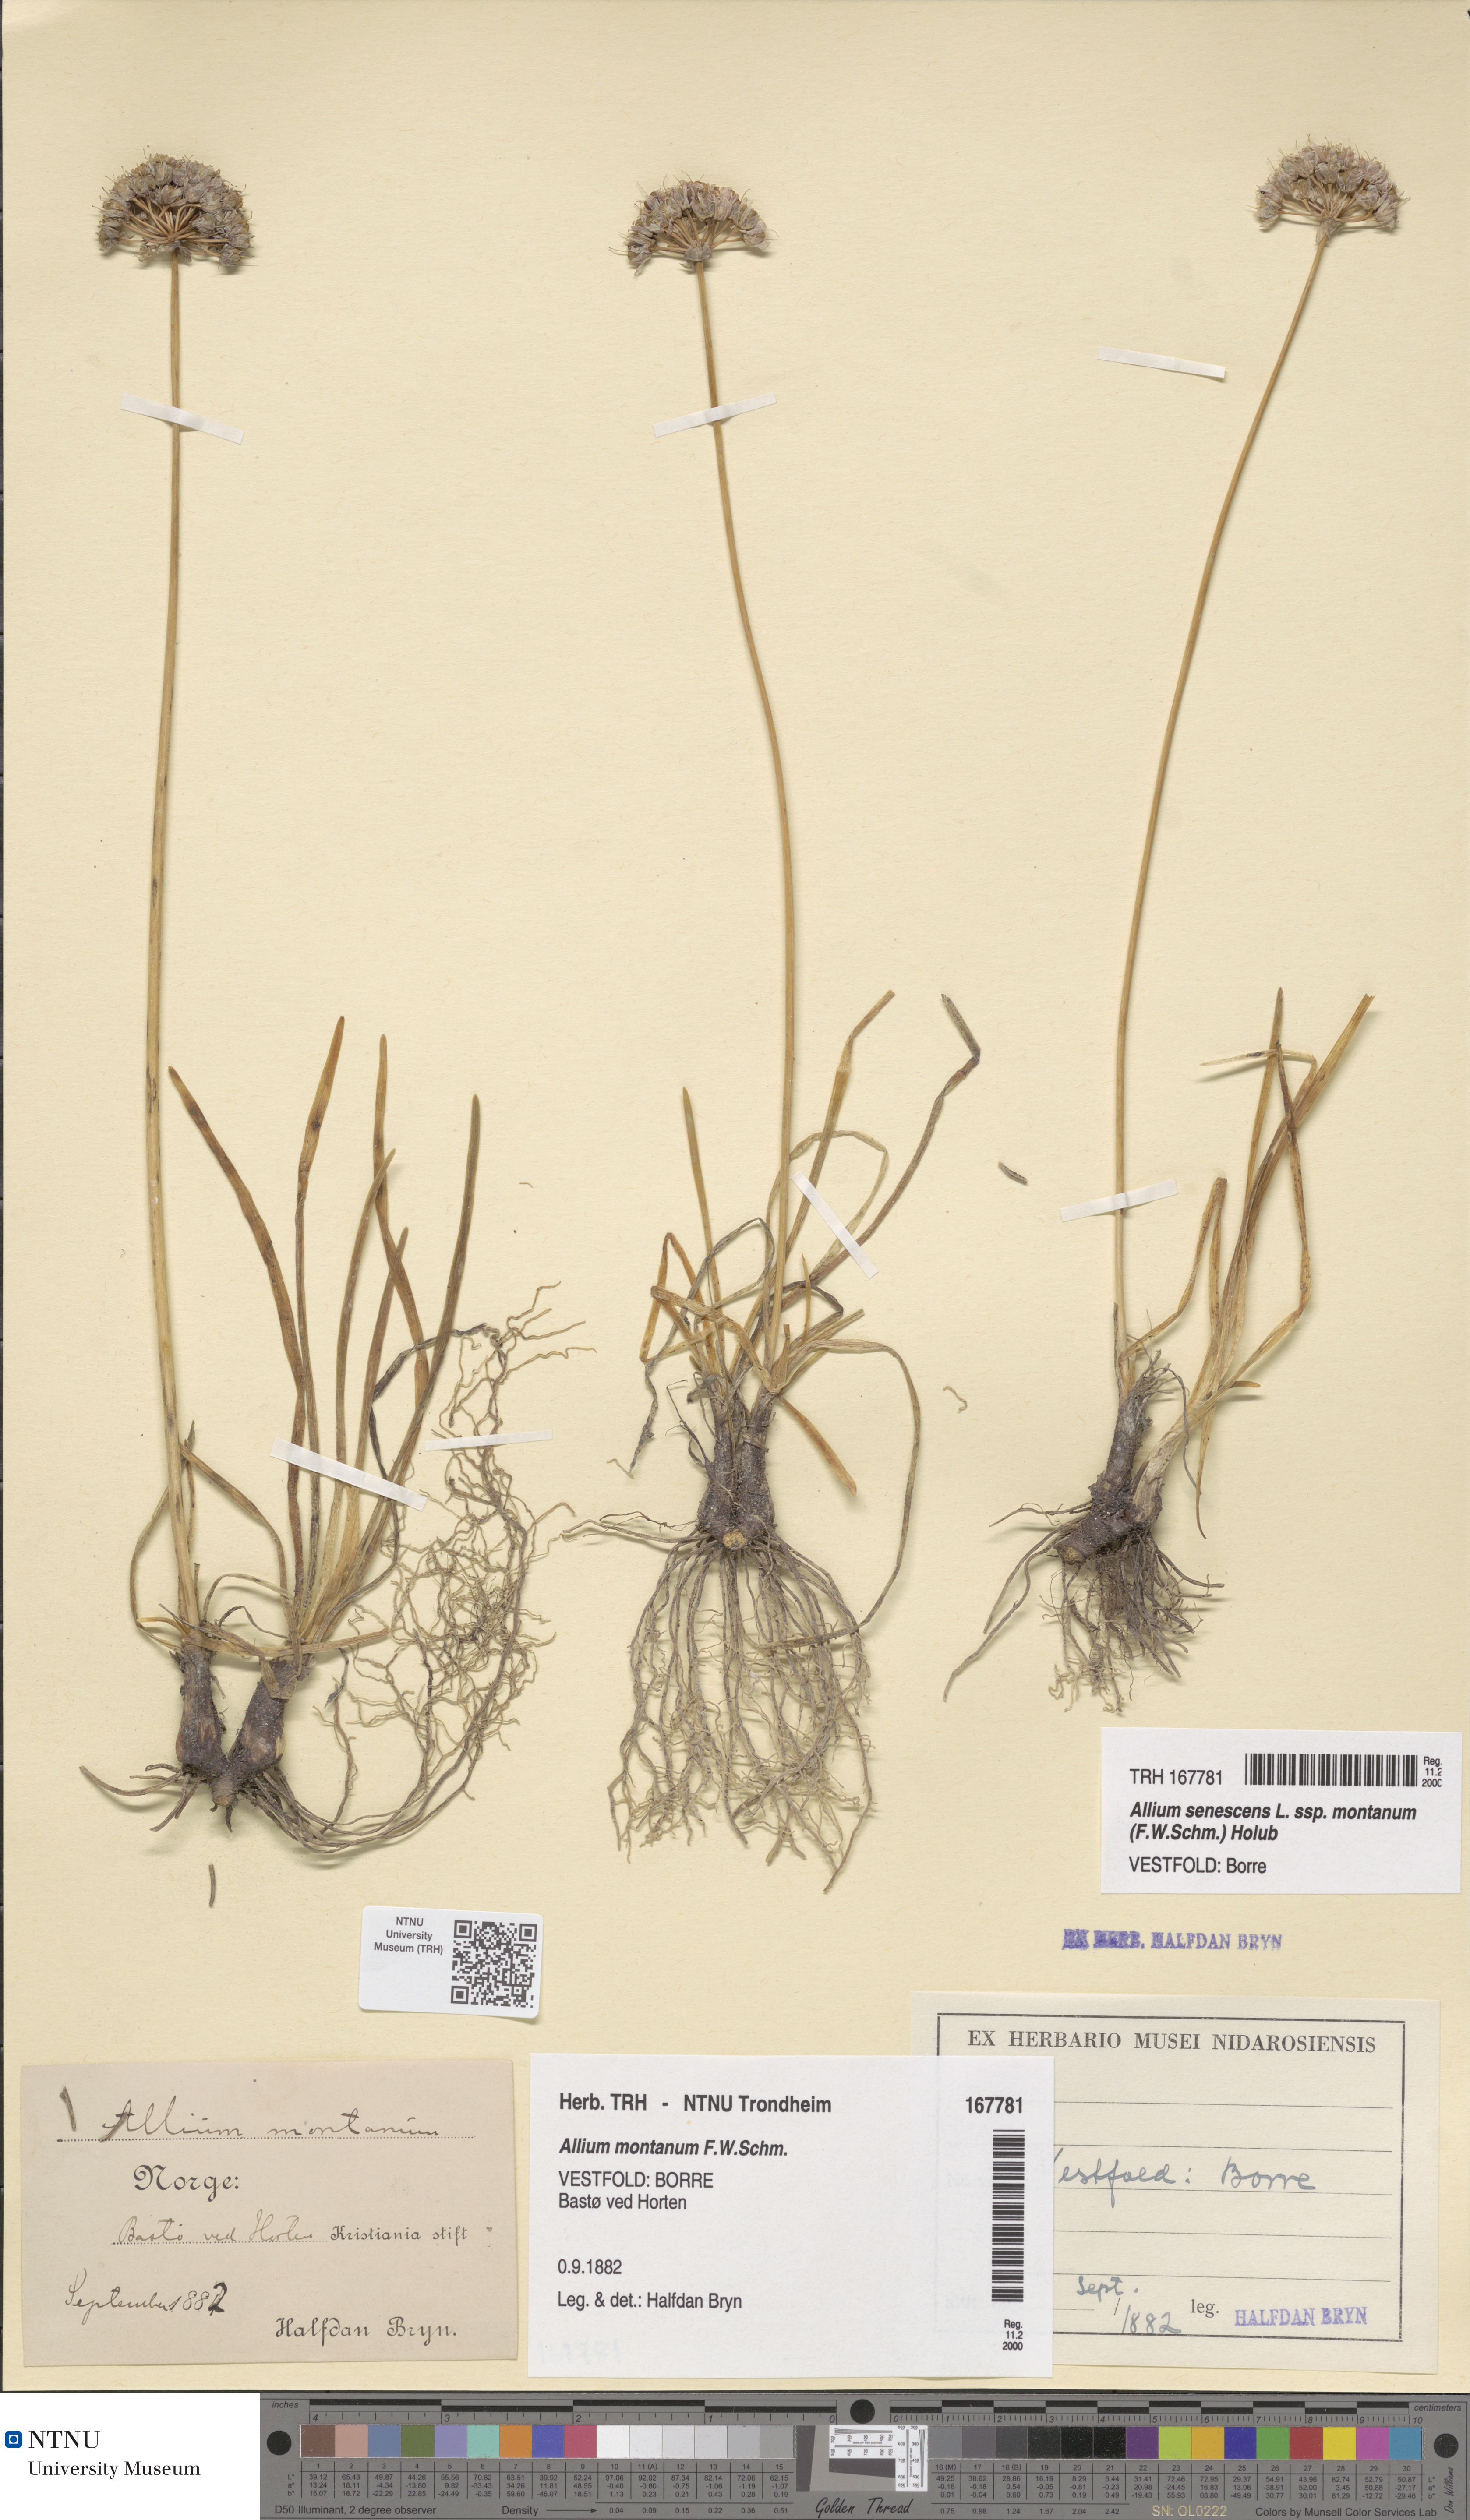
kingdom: Plantae
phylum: Tracheophyta
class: Liliopsida
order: Asparagales
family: Amaryllidaceae
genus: Allium
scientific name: Allium lusitanicum
